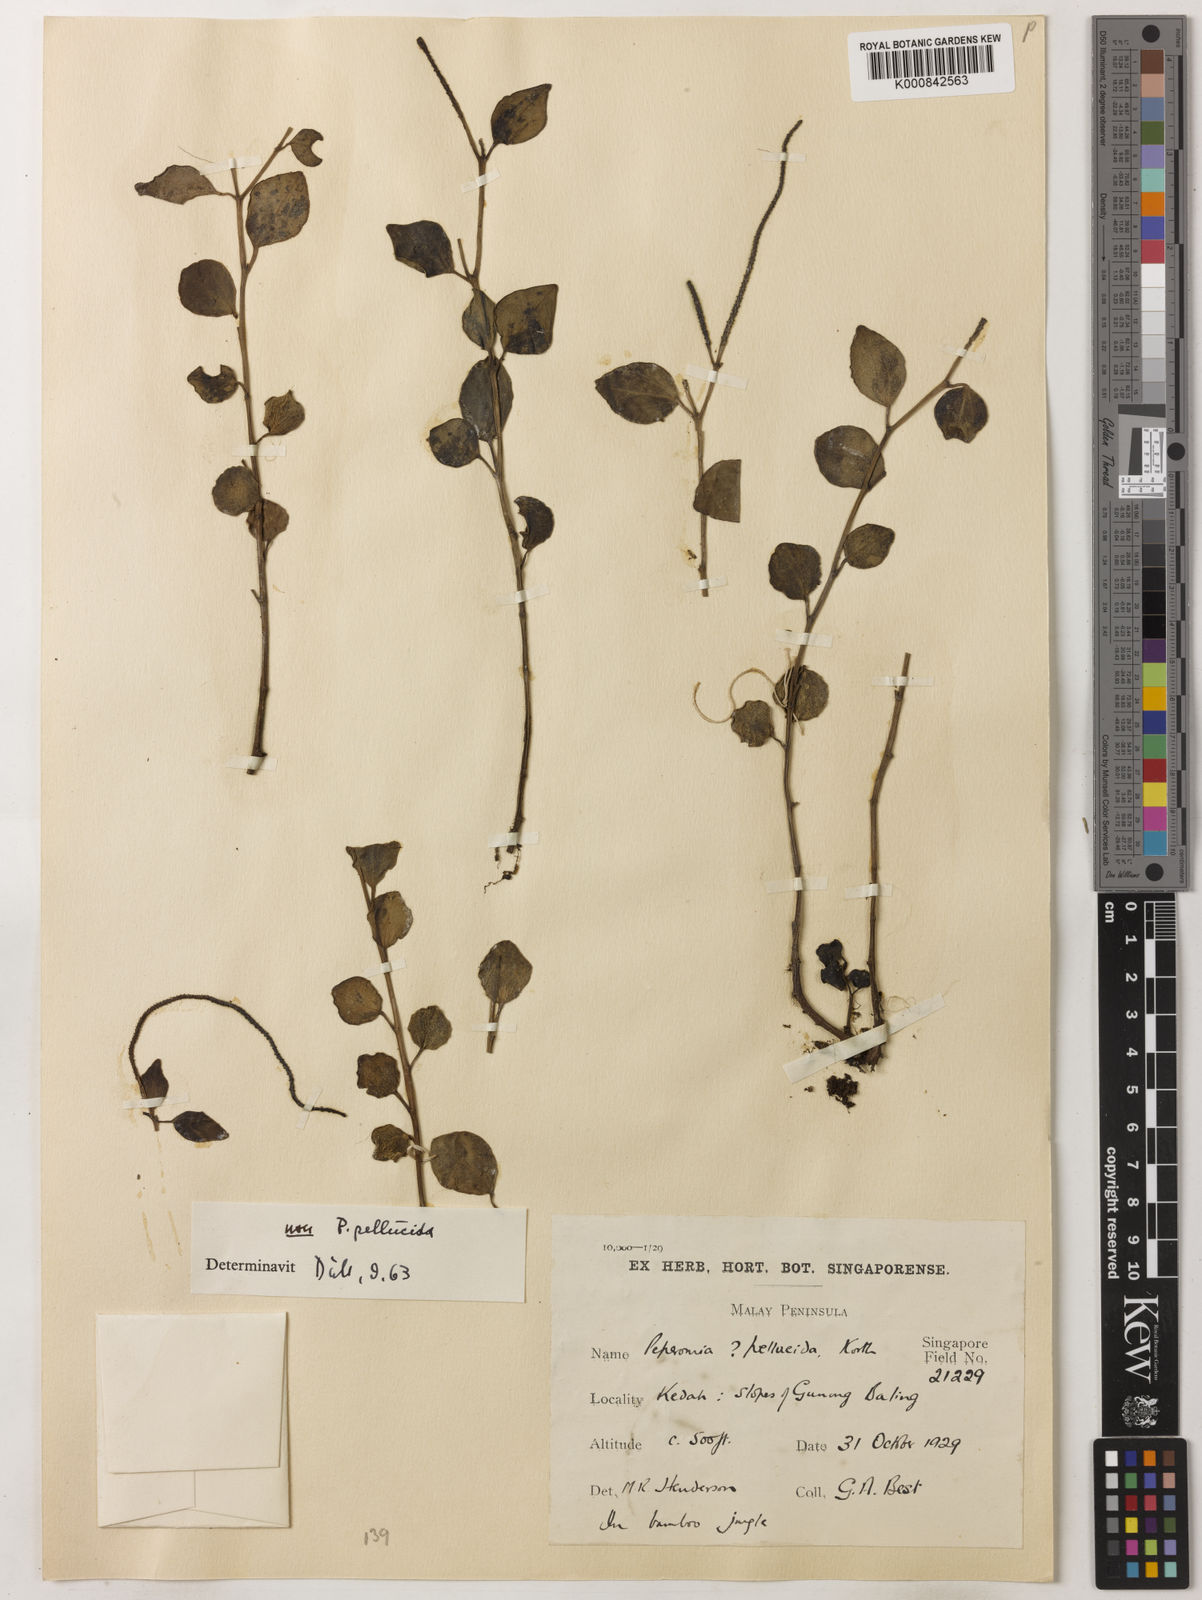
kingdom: Plantae
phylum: Tracheophyta
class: Magnoliopsida
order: Piperales
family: Piperaceae
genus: Peperomia
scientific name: Peperomia kotana
